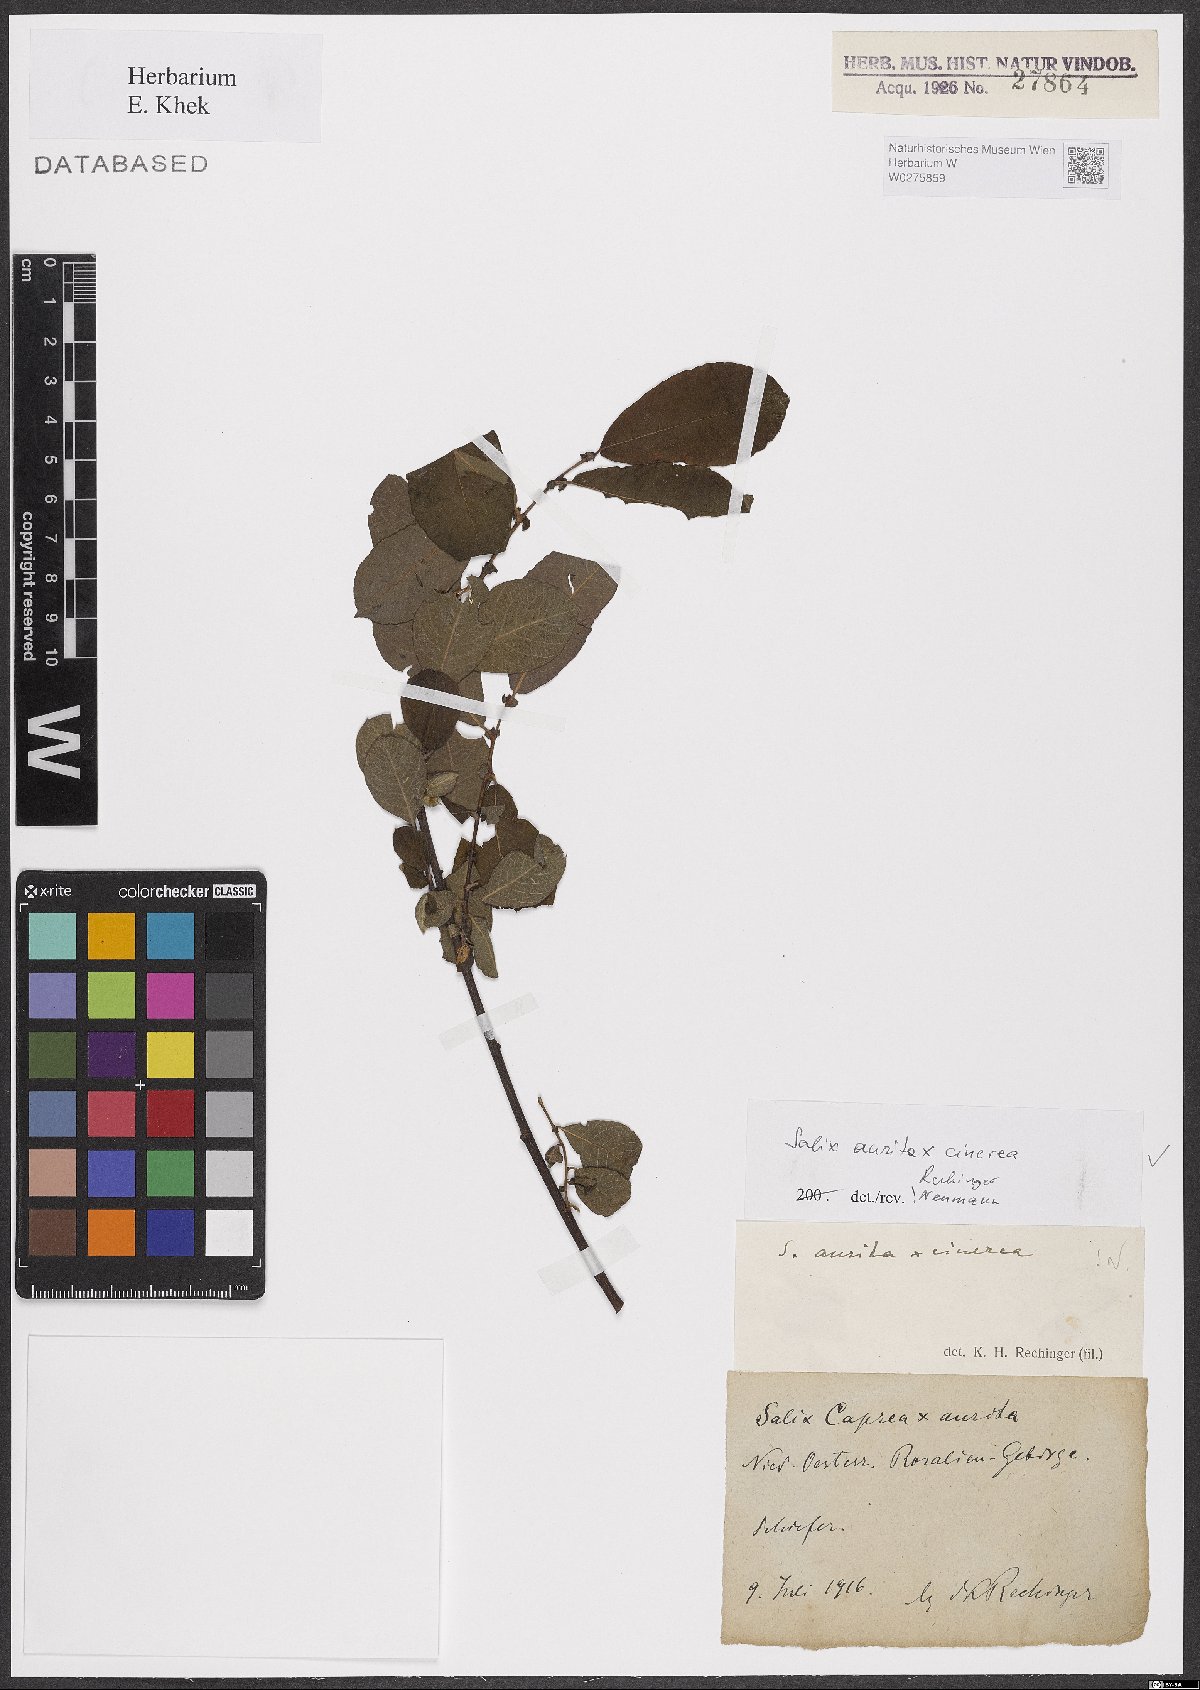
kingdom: Plantae
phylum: Tracheophyta
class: Magnoliopsida
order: Malpighiales
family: Salicaceae
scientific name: Salicaceae
